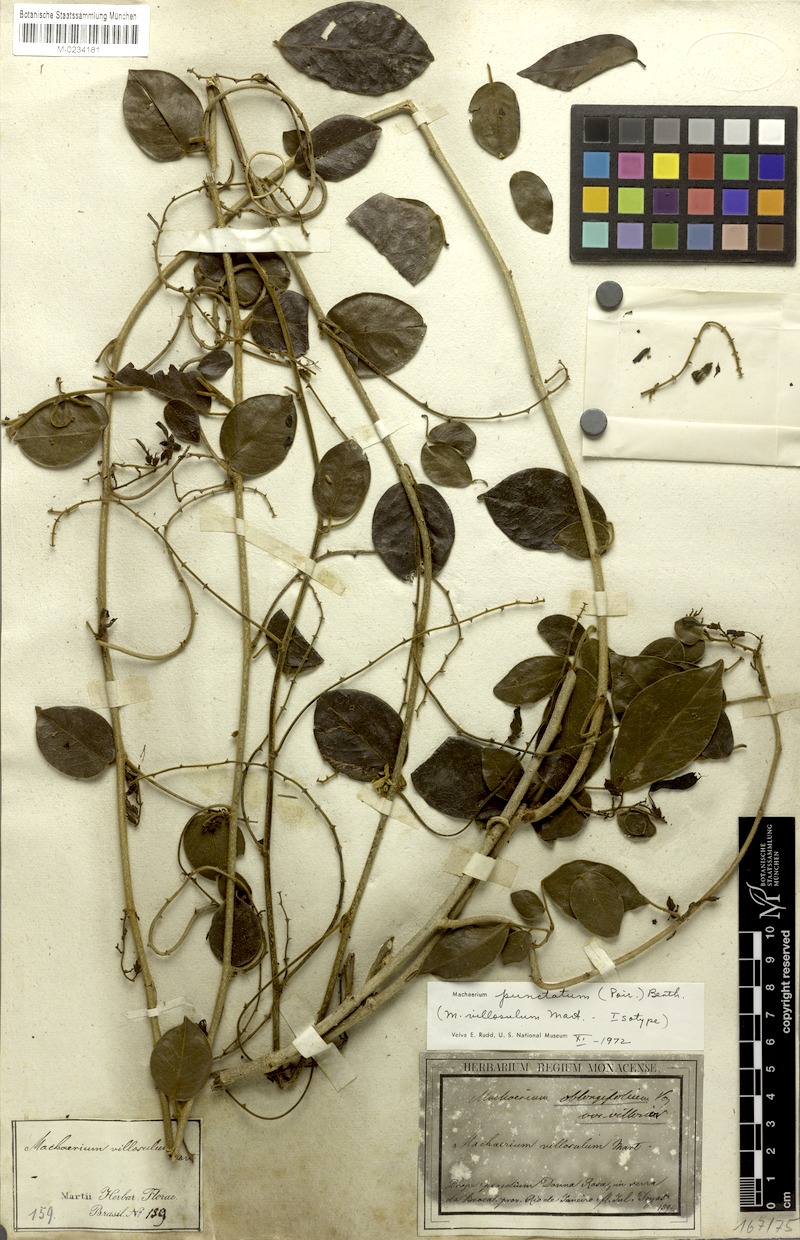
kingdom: Plantae
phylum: Tracheophyta
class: Magnoliopsida
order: Fabales
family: Fabaceae
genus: Machaerium
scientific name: Machaerium punctatum
